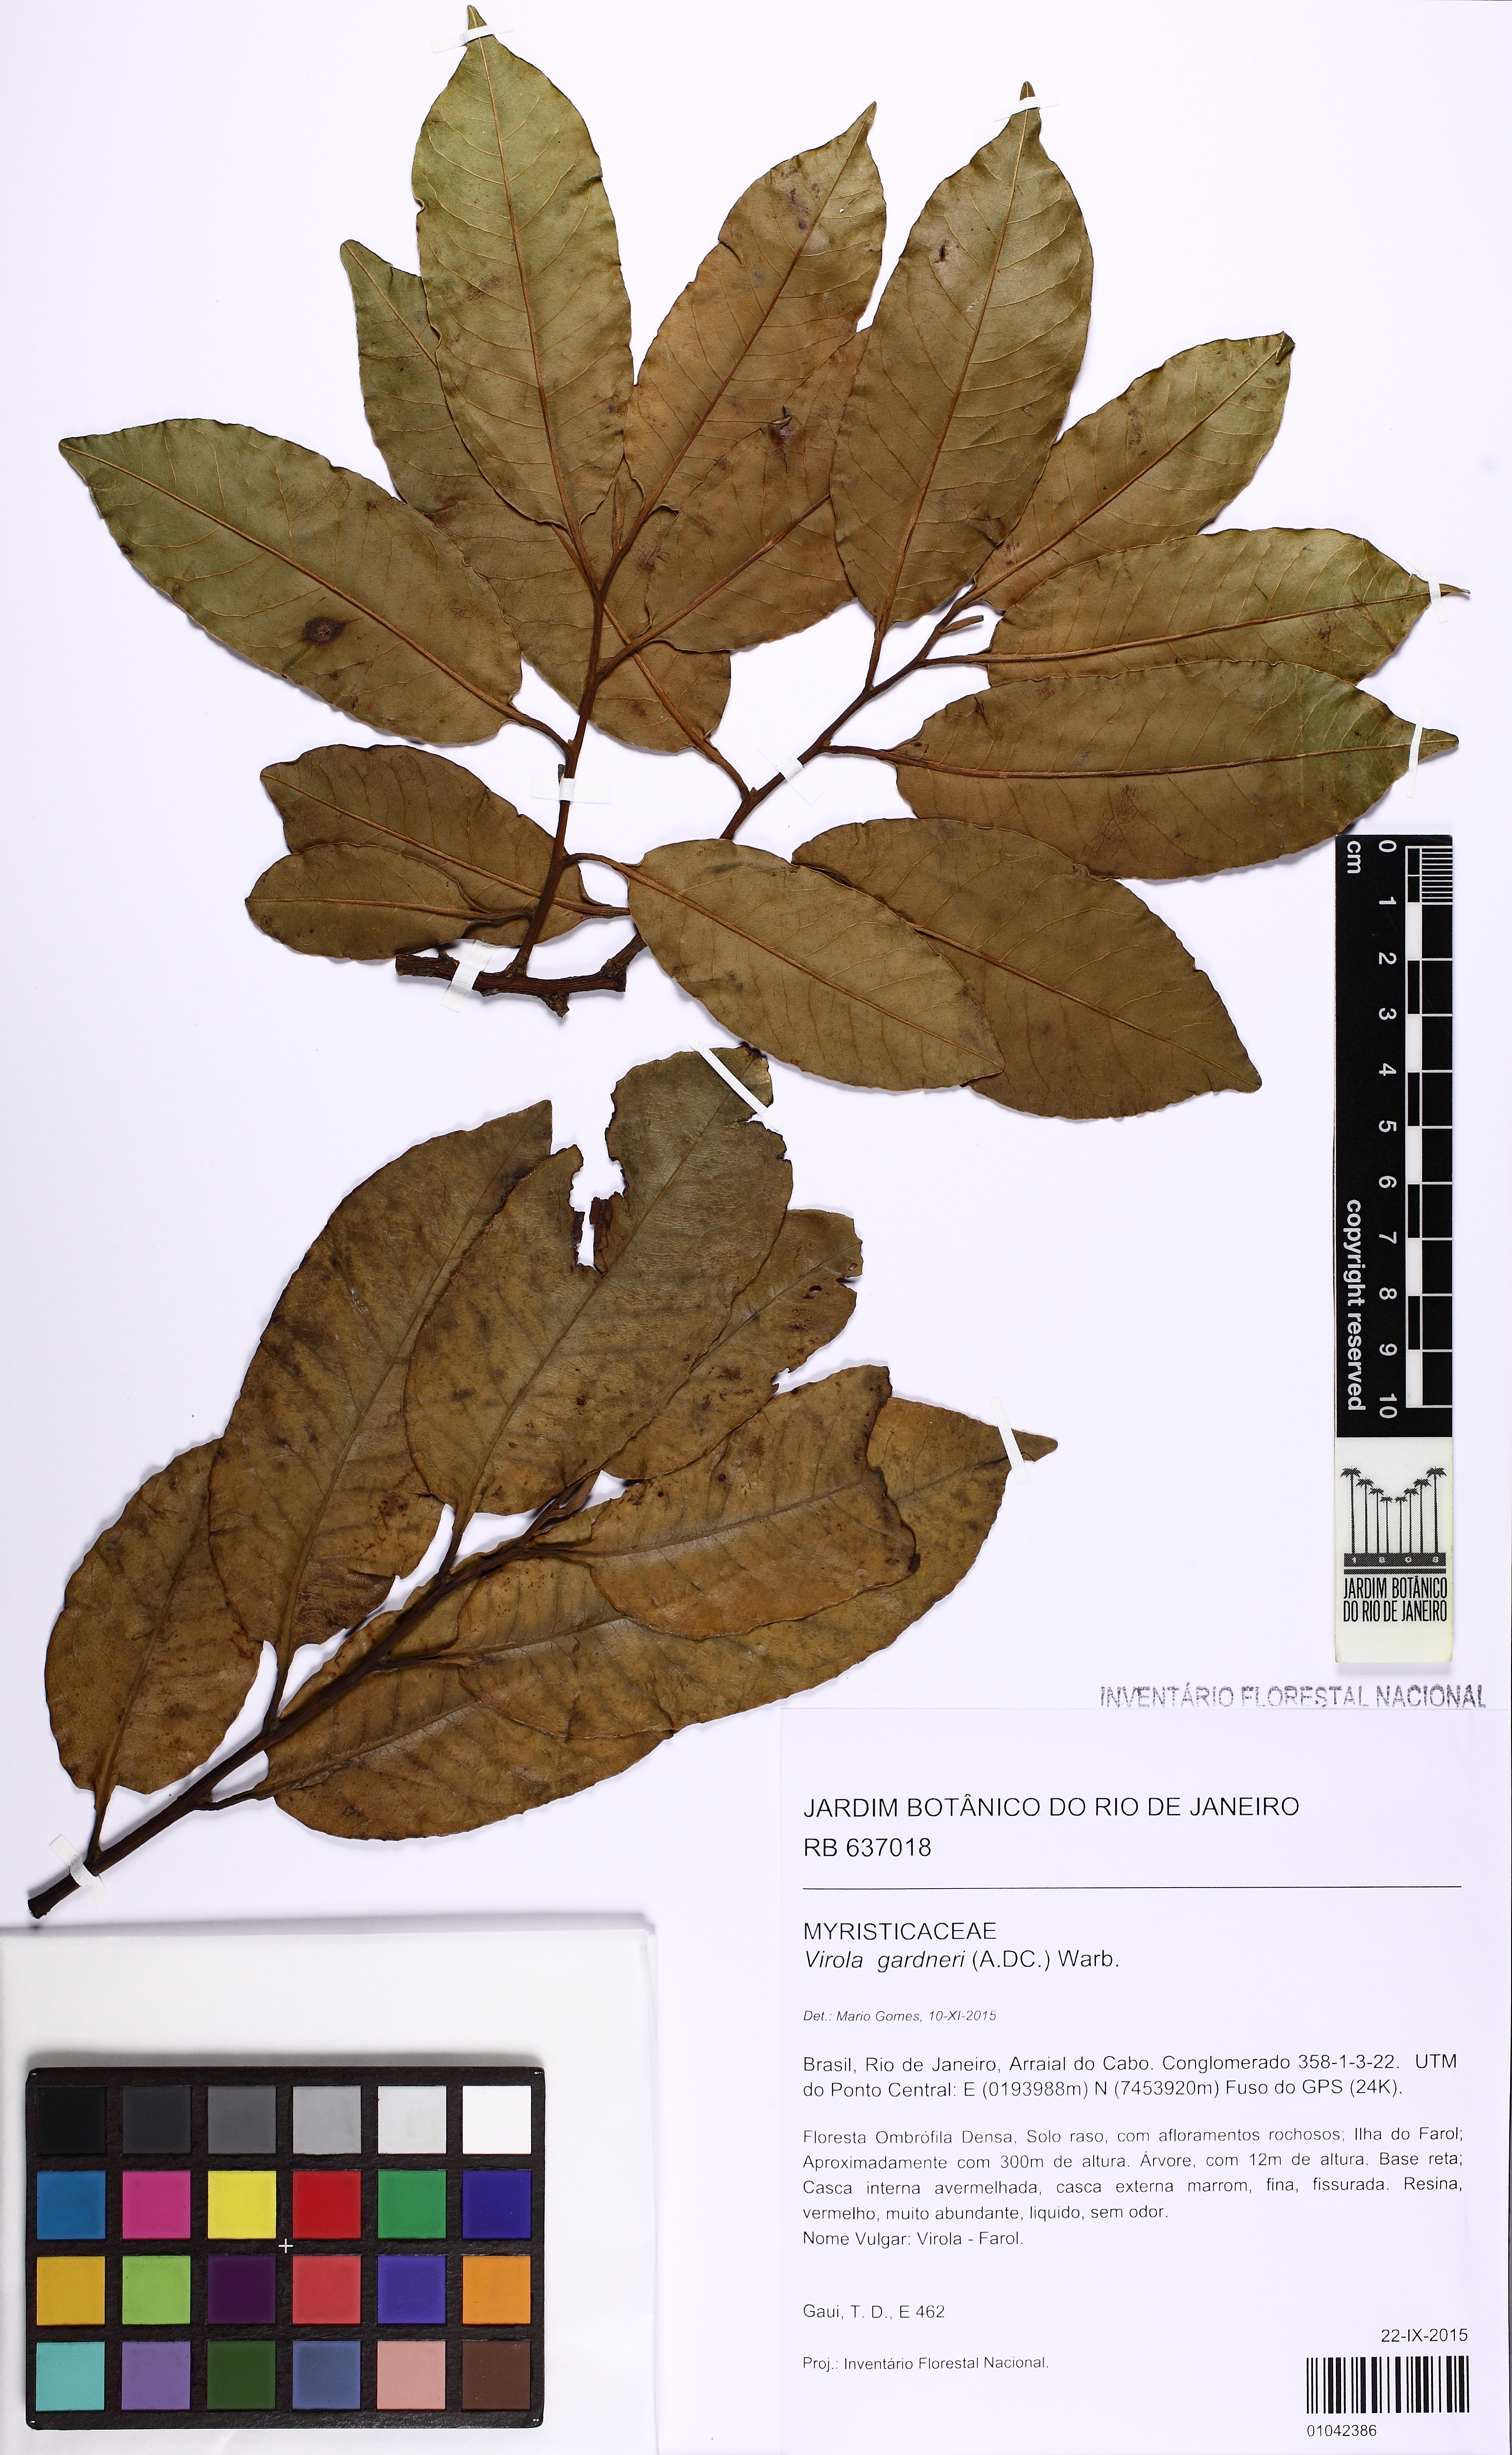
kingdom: Plantae
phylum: Tracheophyta
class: Magnoliopsida
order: Magnoliales
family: Myristicaceae
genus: Virola
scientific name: Virola gardneri
